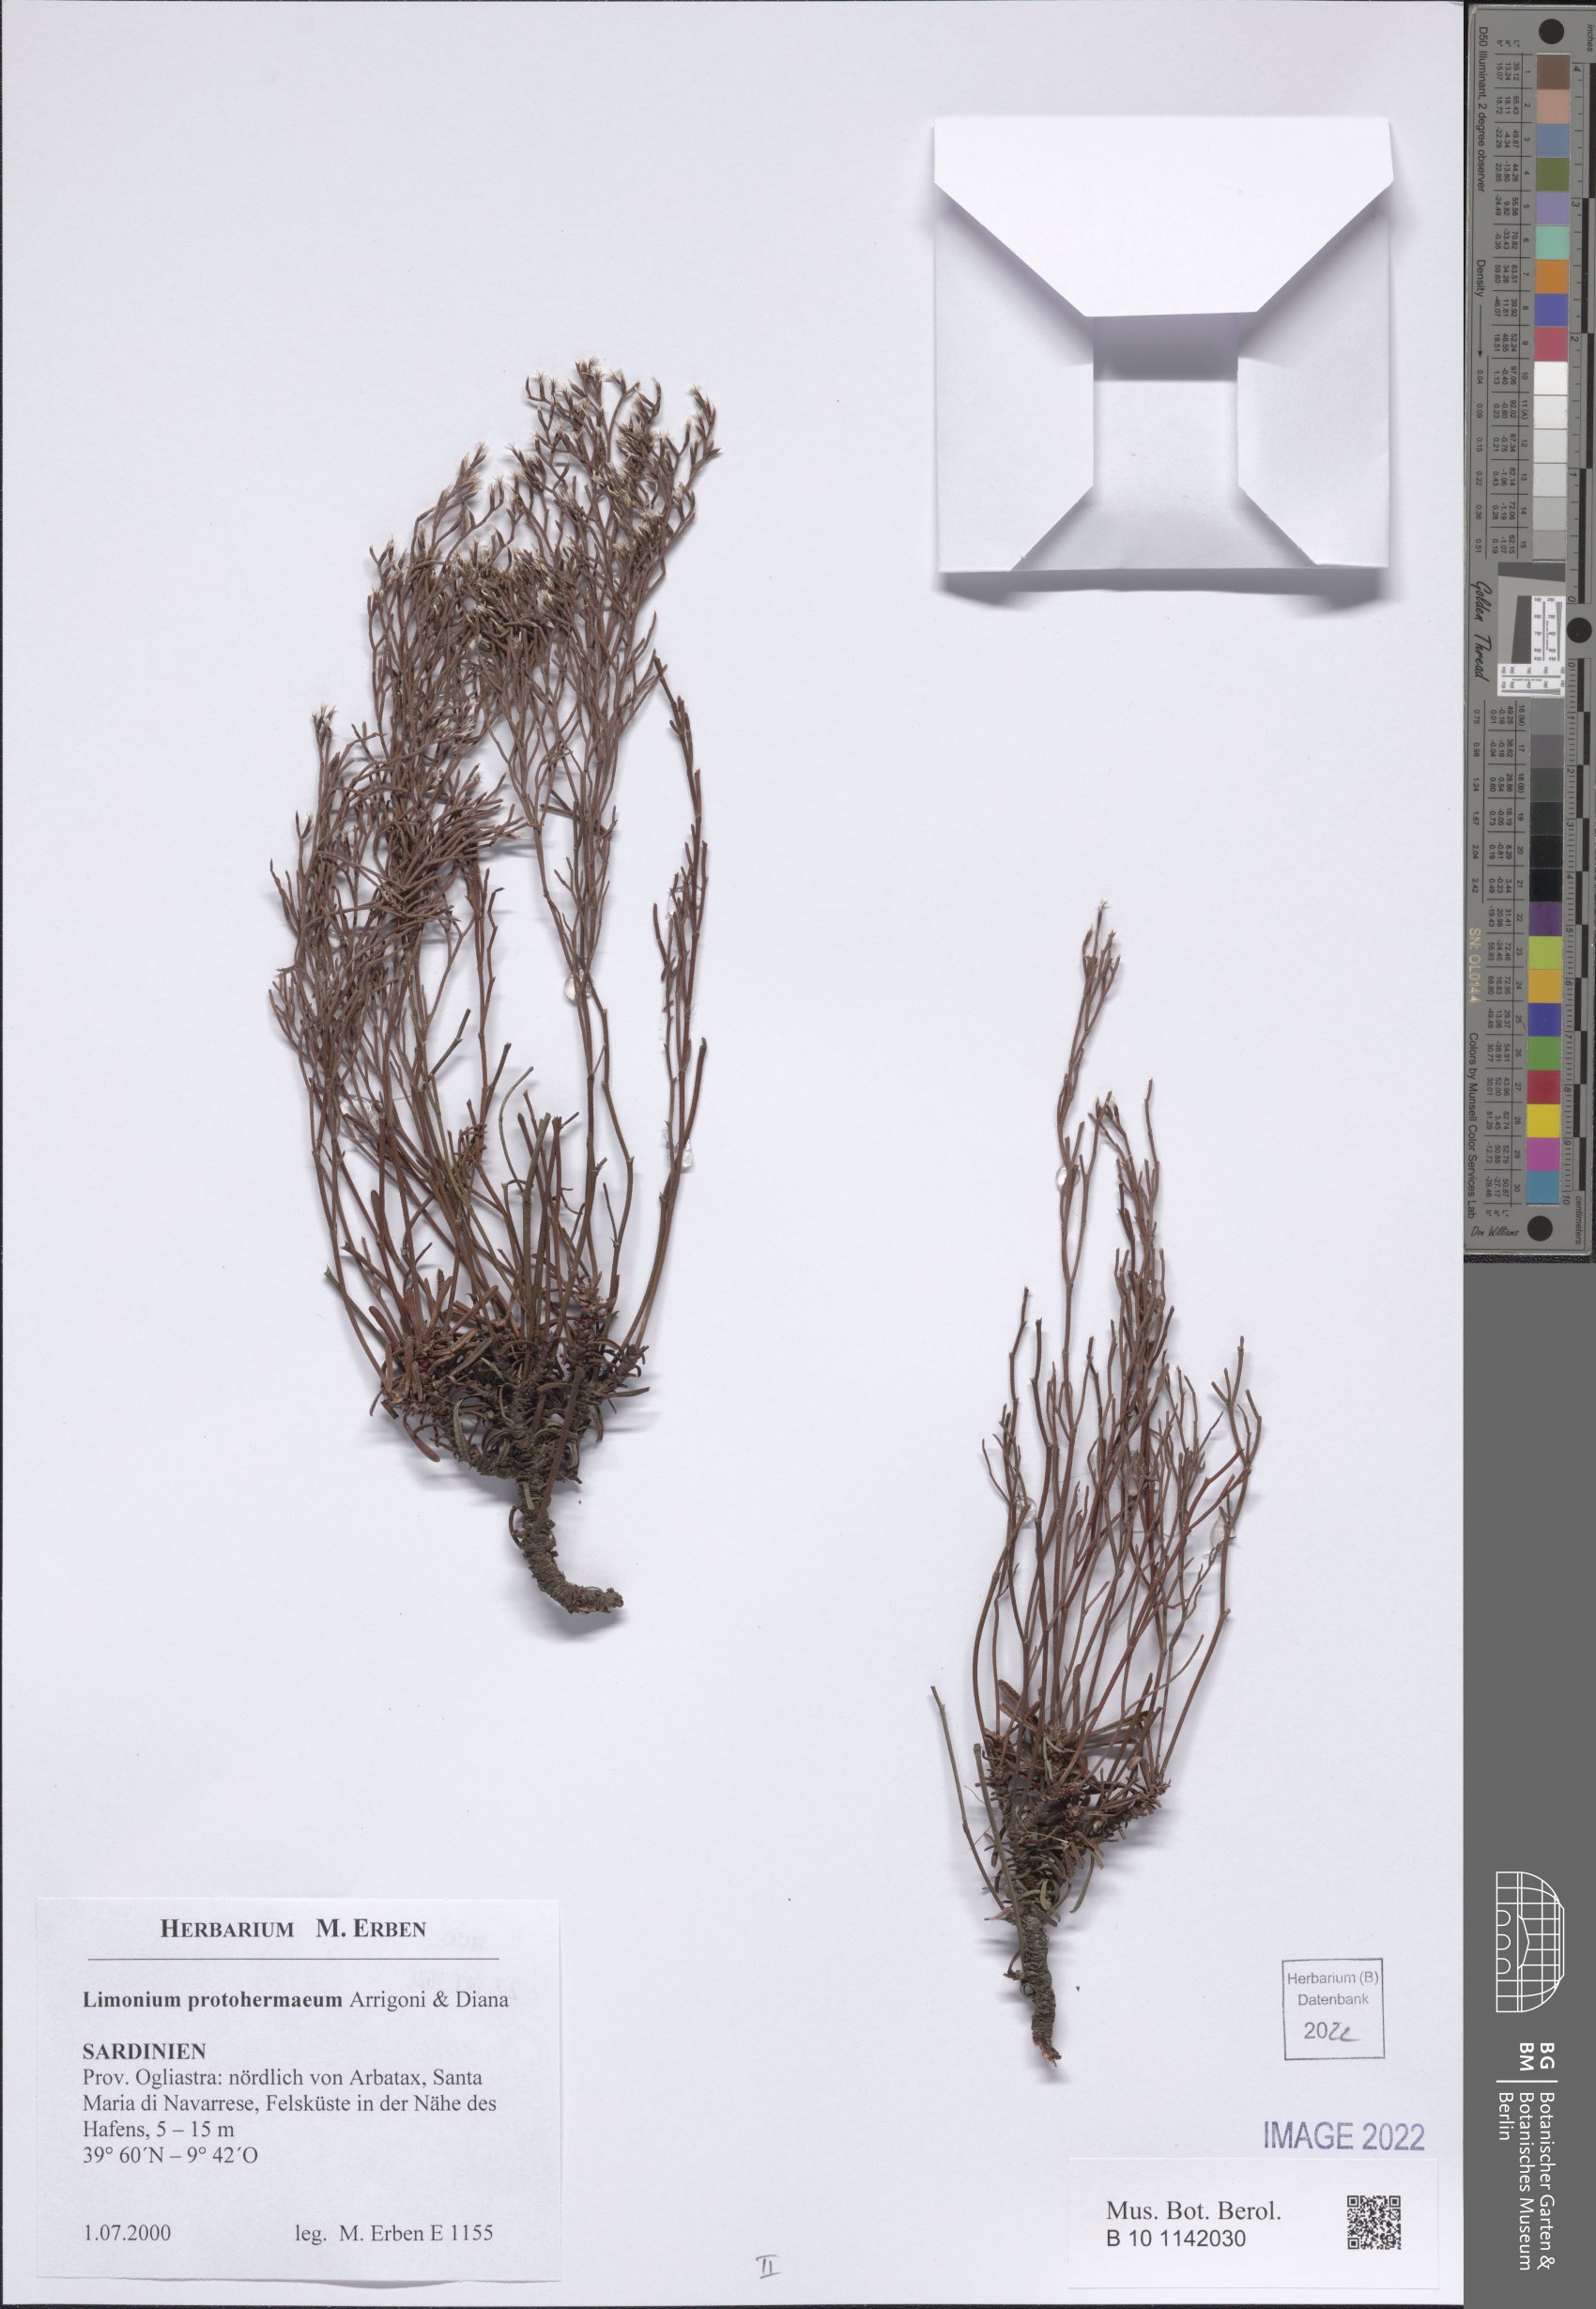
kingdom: Plantae
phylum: Tracheophyta
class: Magnoliopsida
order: Caryophyllales
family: Plumbaginaceae
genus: Limonium
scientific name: Limonium protohermaeum
